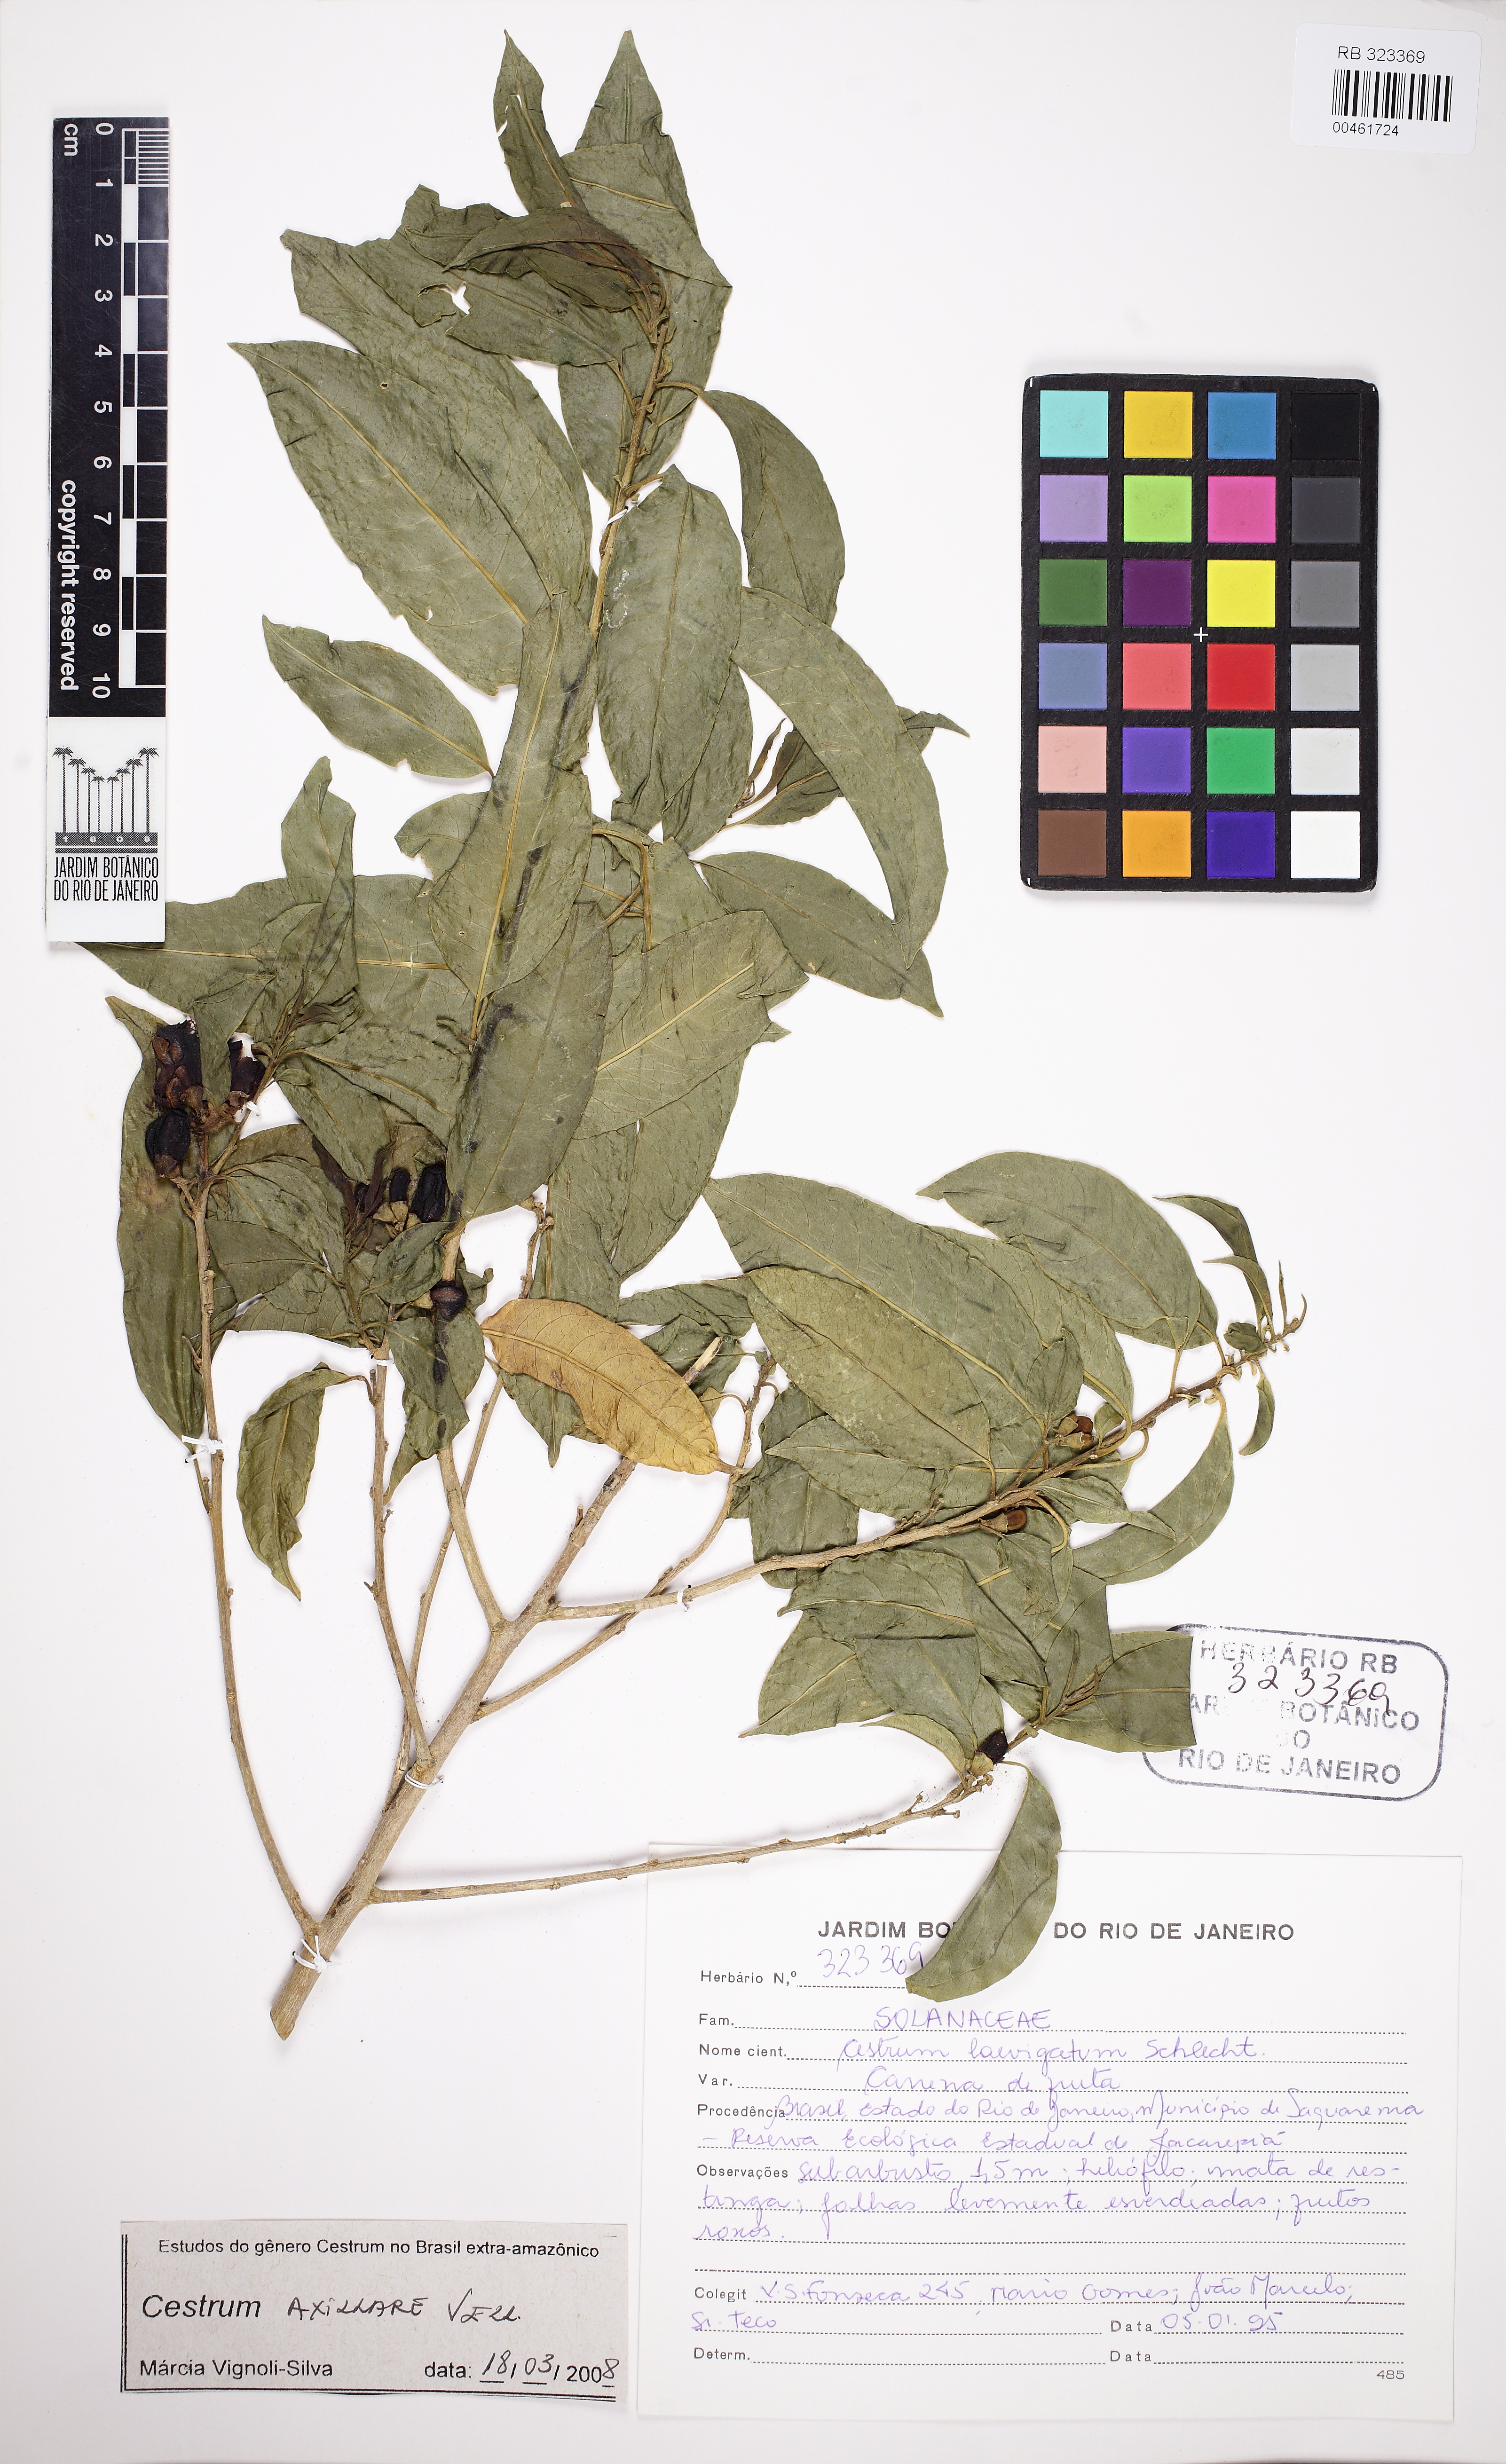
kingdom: Plantae
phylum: Tracheophyta
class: Magnoliopsida
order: Solanales
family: Solanaceae
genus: Cestrum
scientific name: Cestrum laevigatum
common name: Inkberry
